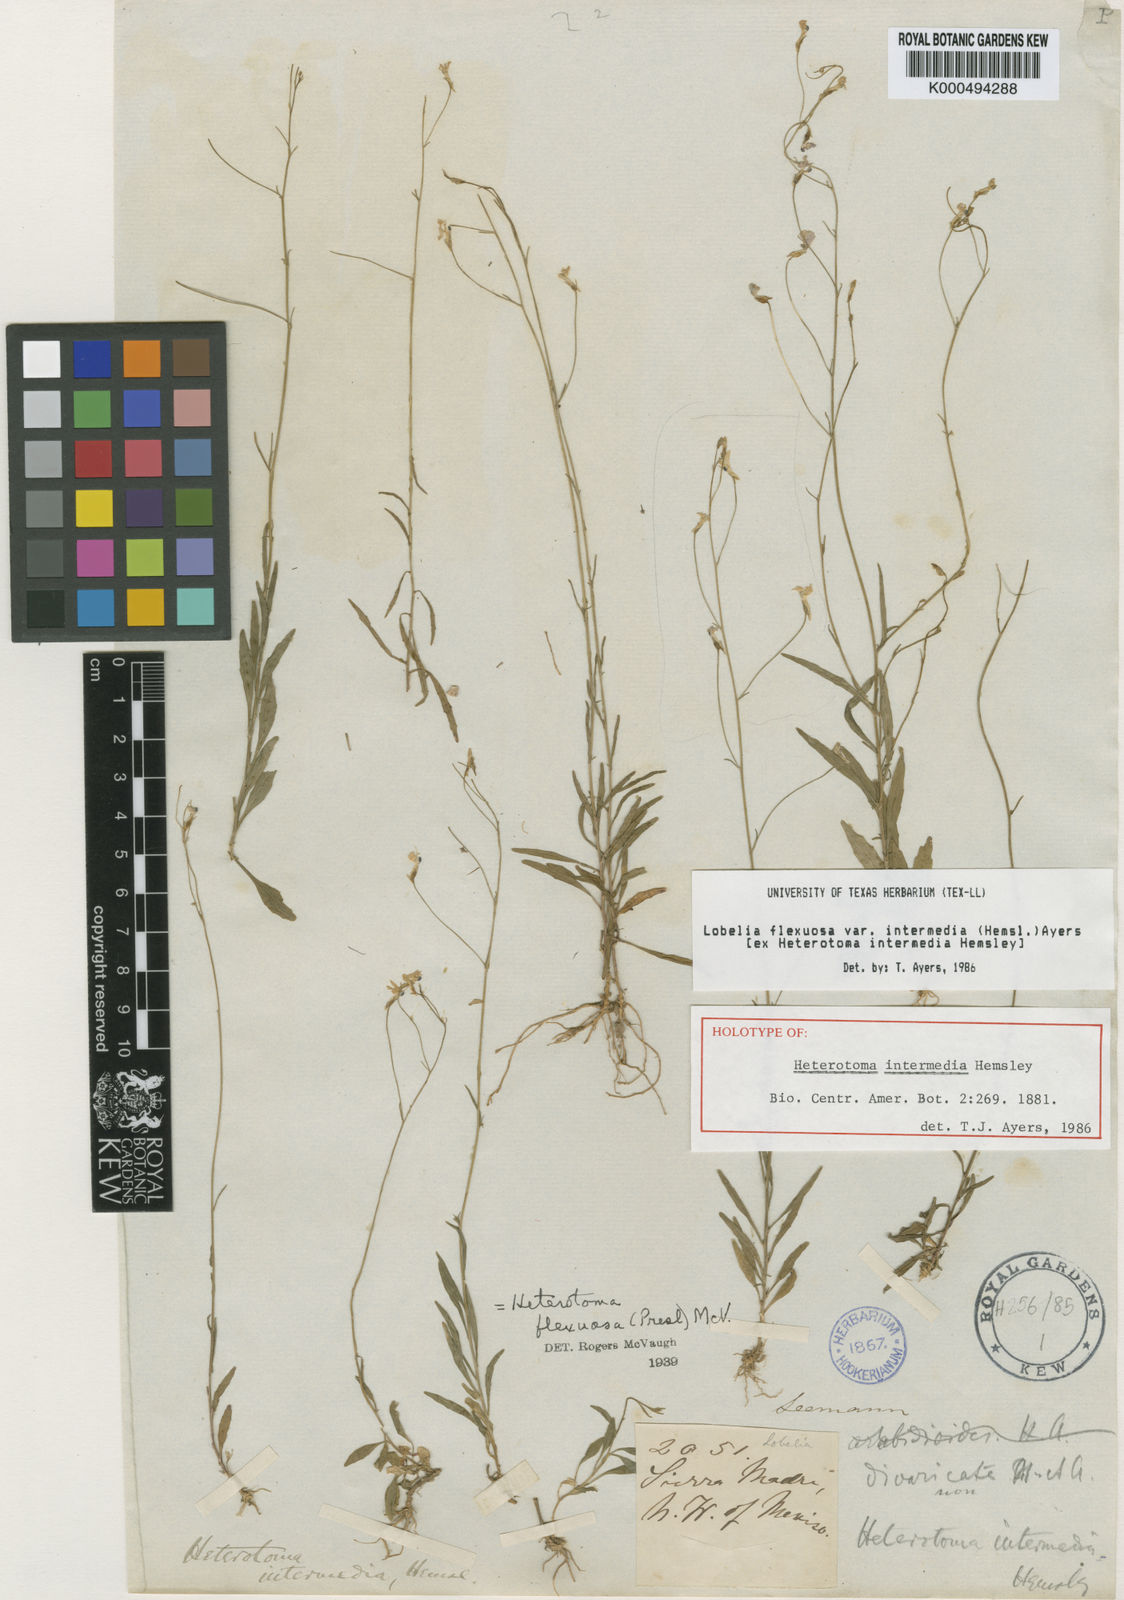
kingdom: Plantae
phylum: Tracheophyta
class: Magnoliopsida
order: Asterales
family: Campanulaceae
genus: Lobelia
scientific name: Lobelia flexuosa
